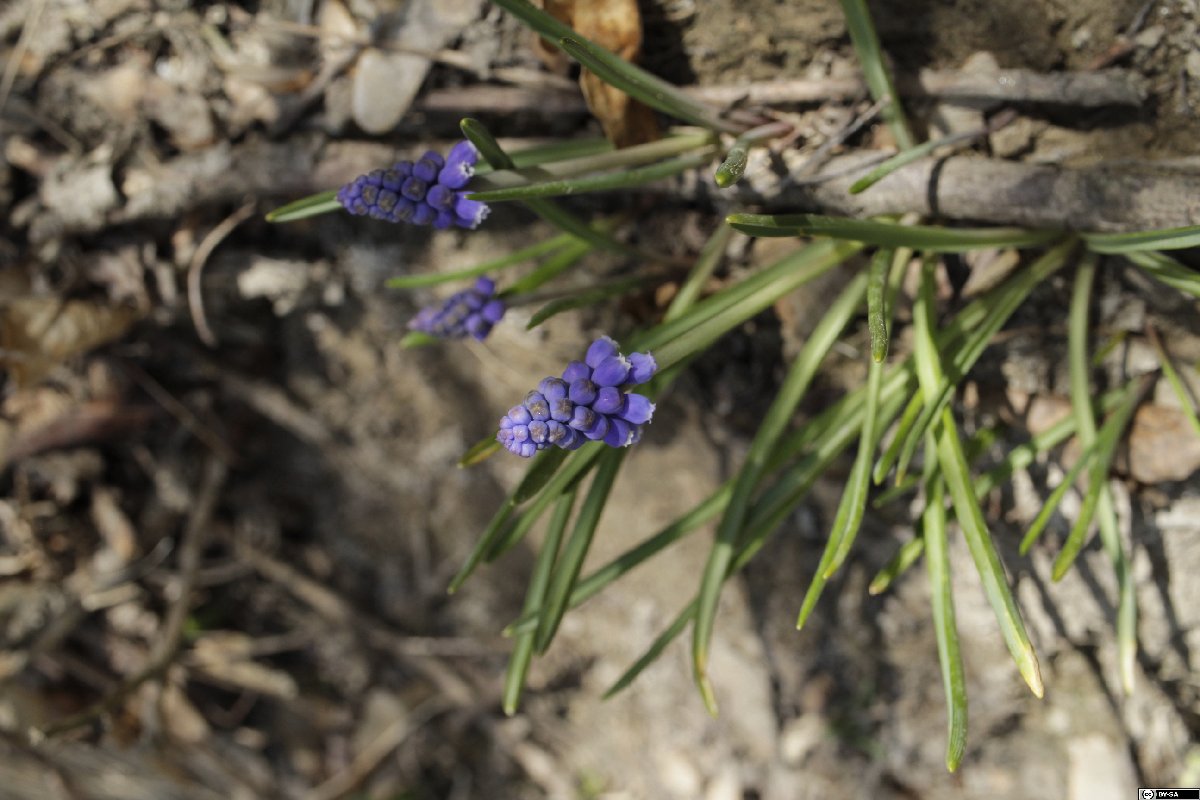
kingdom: Plantae
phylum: Tracheophyta
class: Liliopsida
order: Asparagales
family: Asparagaceae
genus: Muscari
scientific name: Muscari armeniacum
